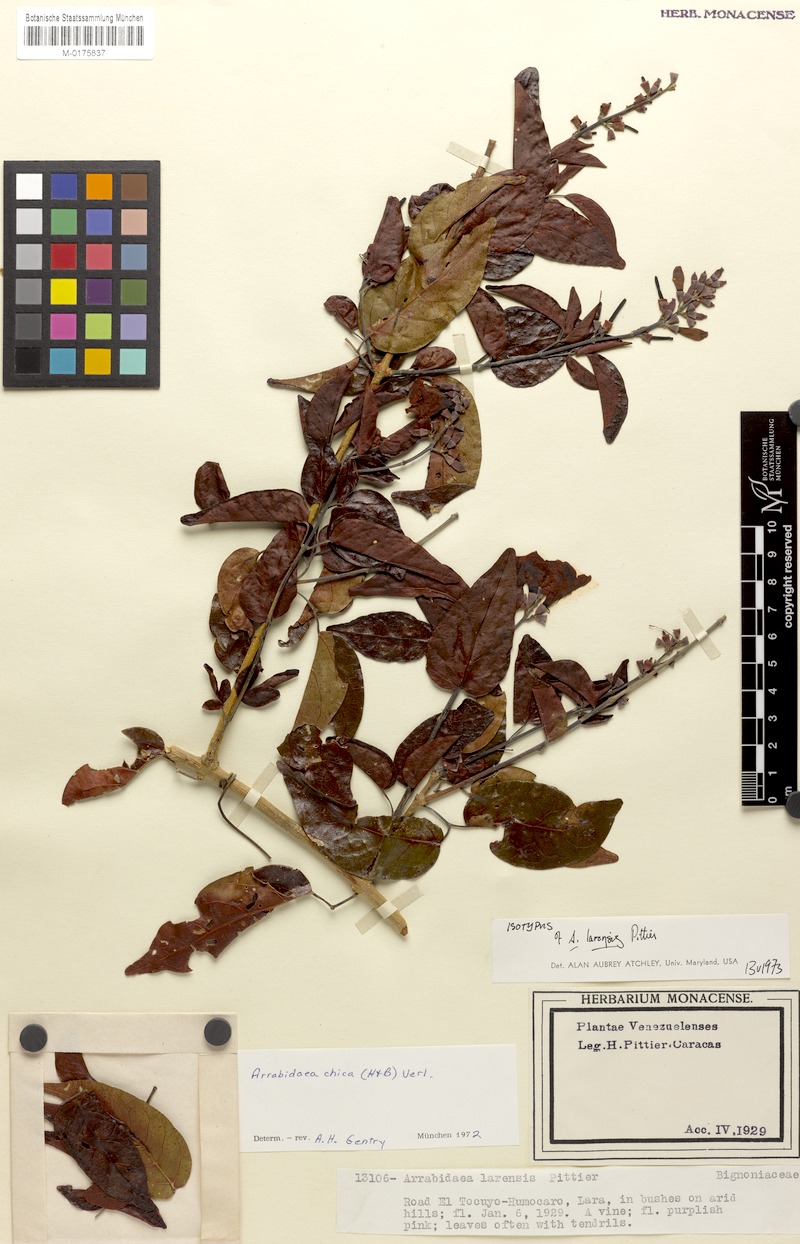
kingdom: Plantae
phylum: Tracheophyta
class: Magnoliopsida
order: Lamiales
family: Bignoniaceae
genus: Fridericia
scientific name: Fridericia chica
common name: Cricketvine
